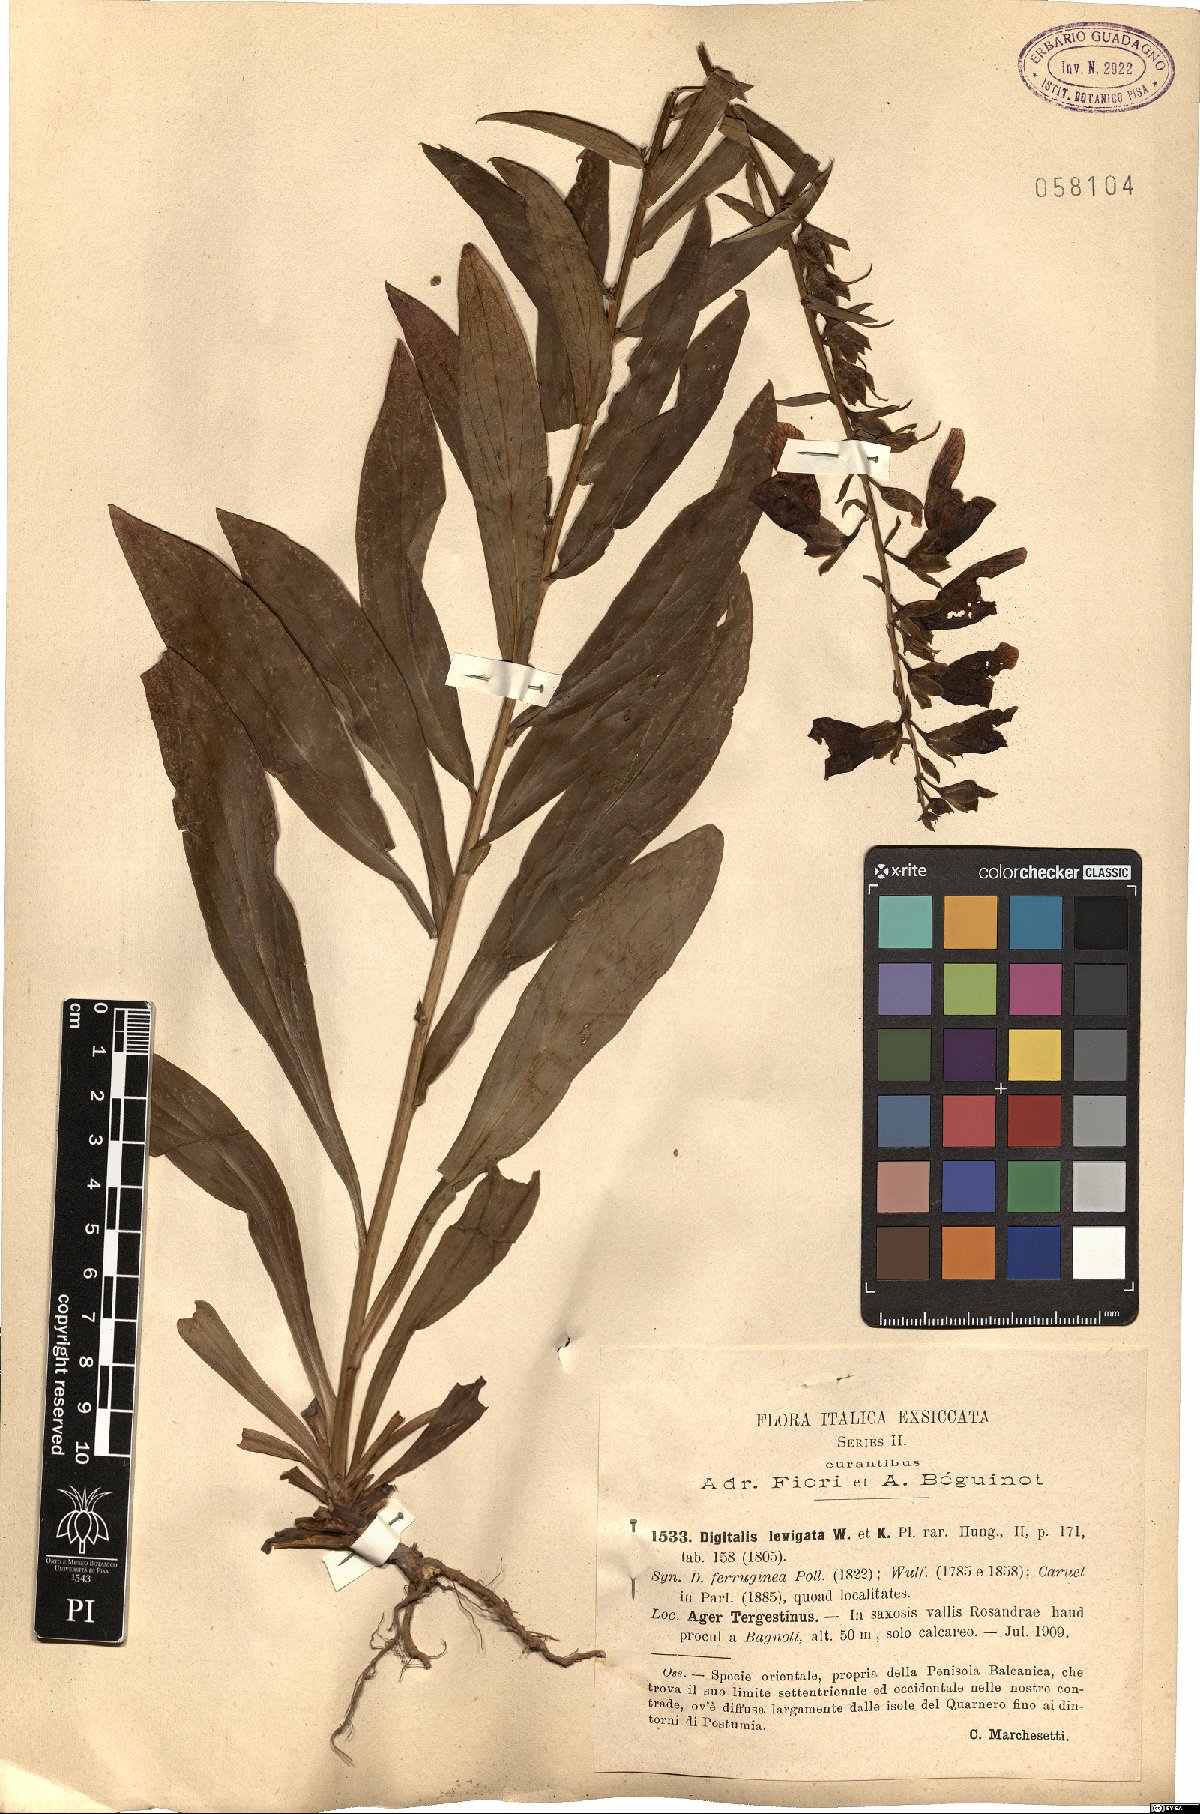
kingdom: Plantae
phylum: Tracheophyta
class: Magnoliopsida
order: Lamiales
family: Plantaginaceae
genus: Digitalis
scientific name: Digitalis laevigata
